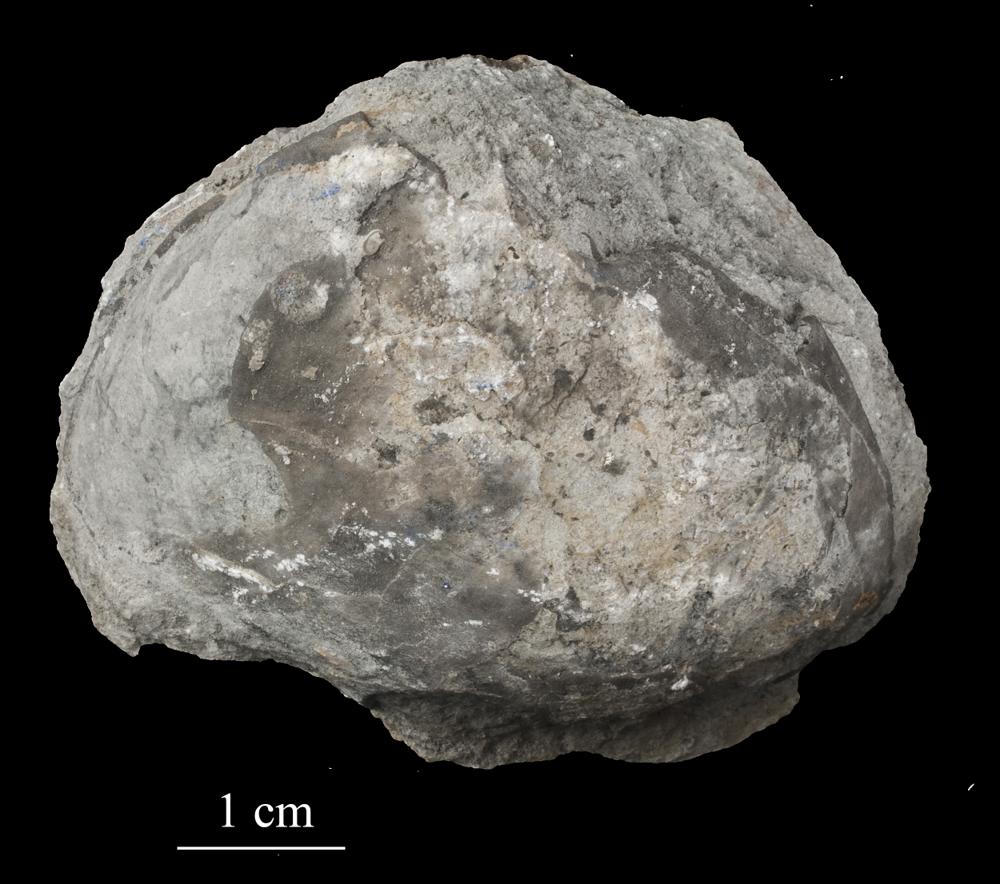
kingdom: Animalia
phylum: Brachiopoda
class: Rhynchonellata
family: Porambonitidae
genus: Porambonites
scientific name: Porambonites
